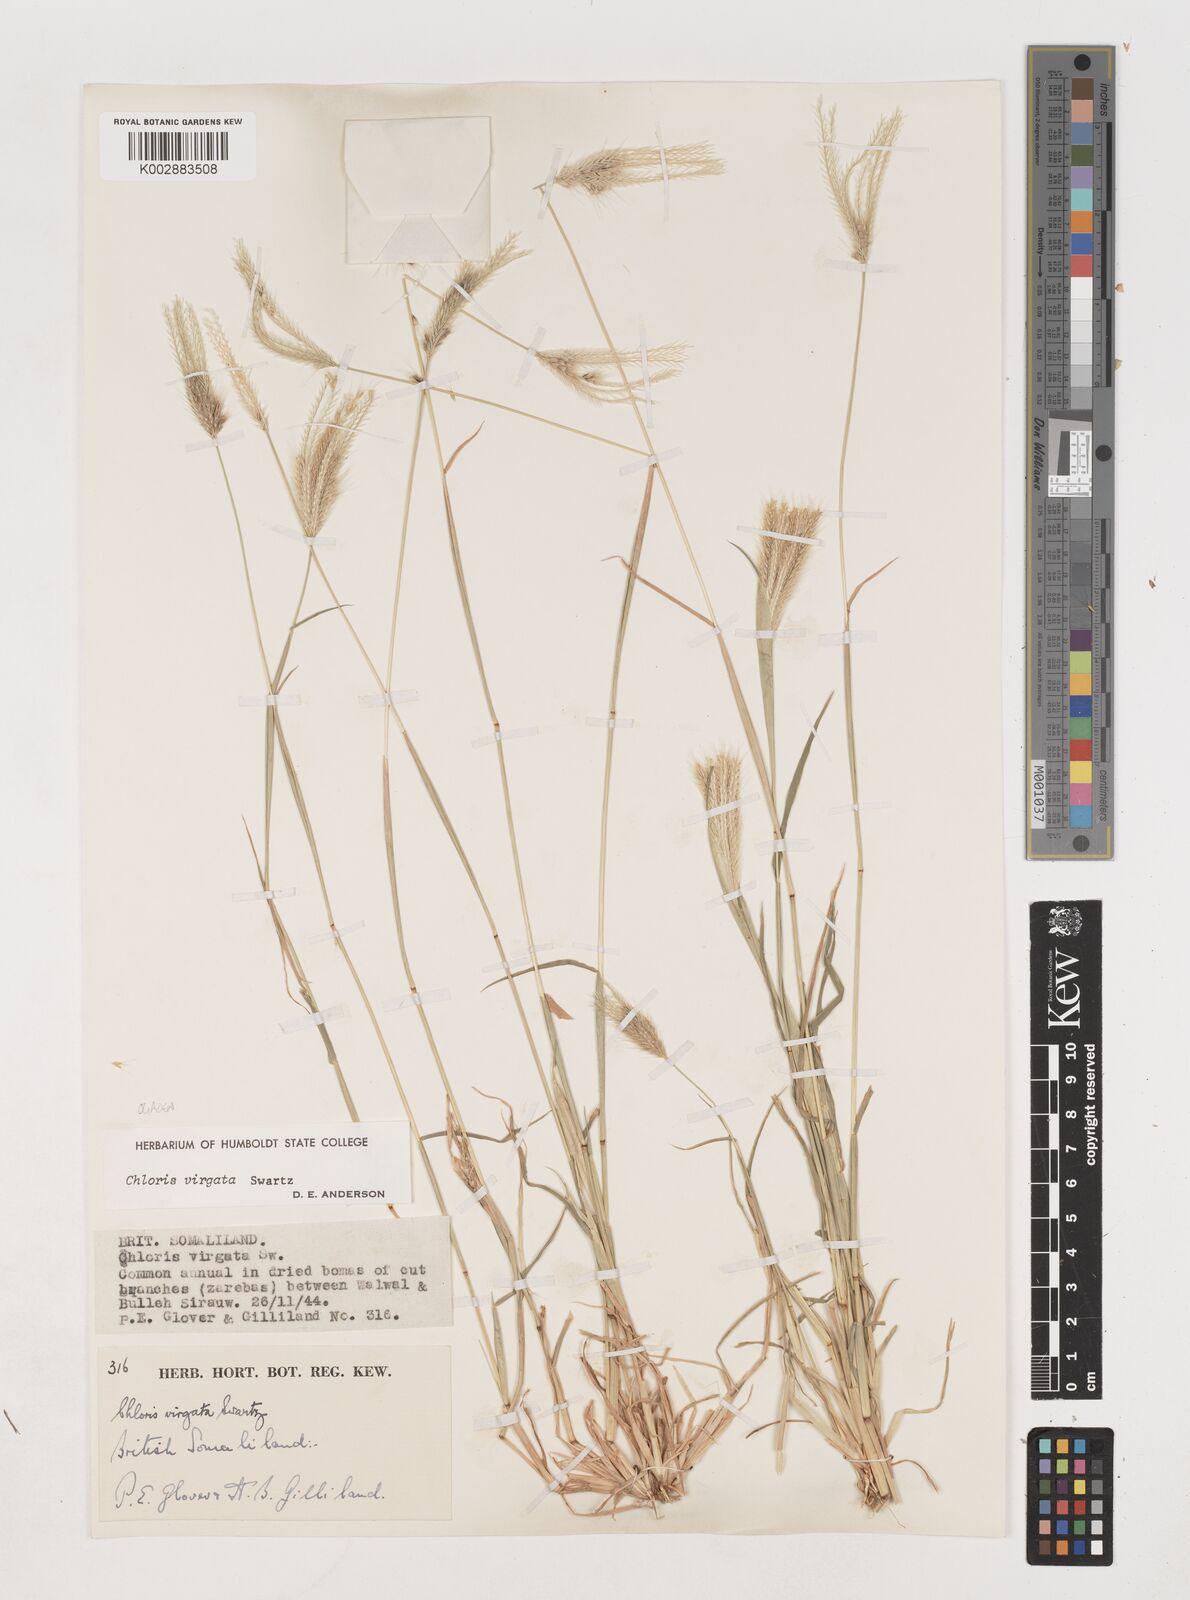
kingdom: Plantae
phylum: Tracheophyta
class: Liliopsida
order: Poales
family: Poaceae
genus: Chloris
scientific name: Chloris virgata
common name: Feathery rhodes-grass
